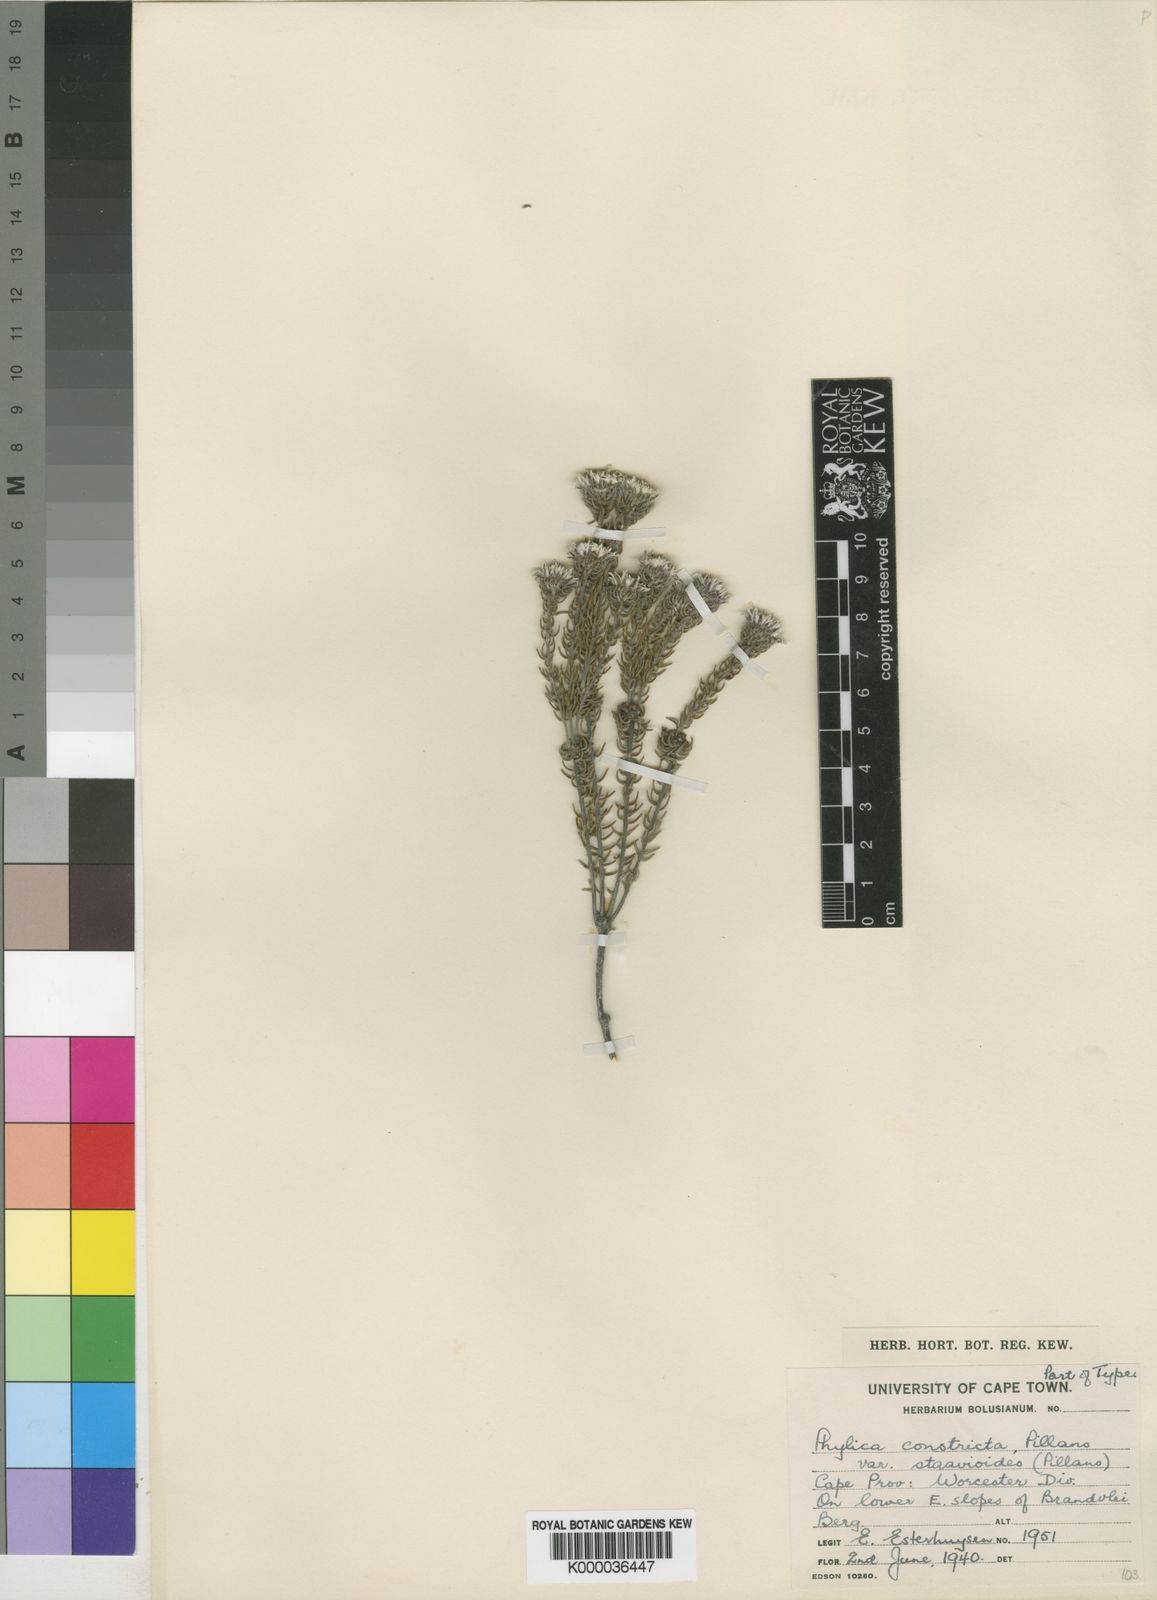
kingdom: Plantae
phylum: Tracheophyta
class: Magnoliopsida
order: Rosales
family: Rhamnaceae
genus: Phylica
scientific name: Phylica constricta
